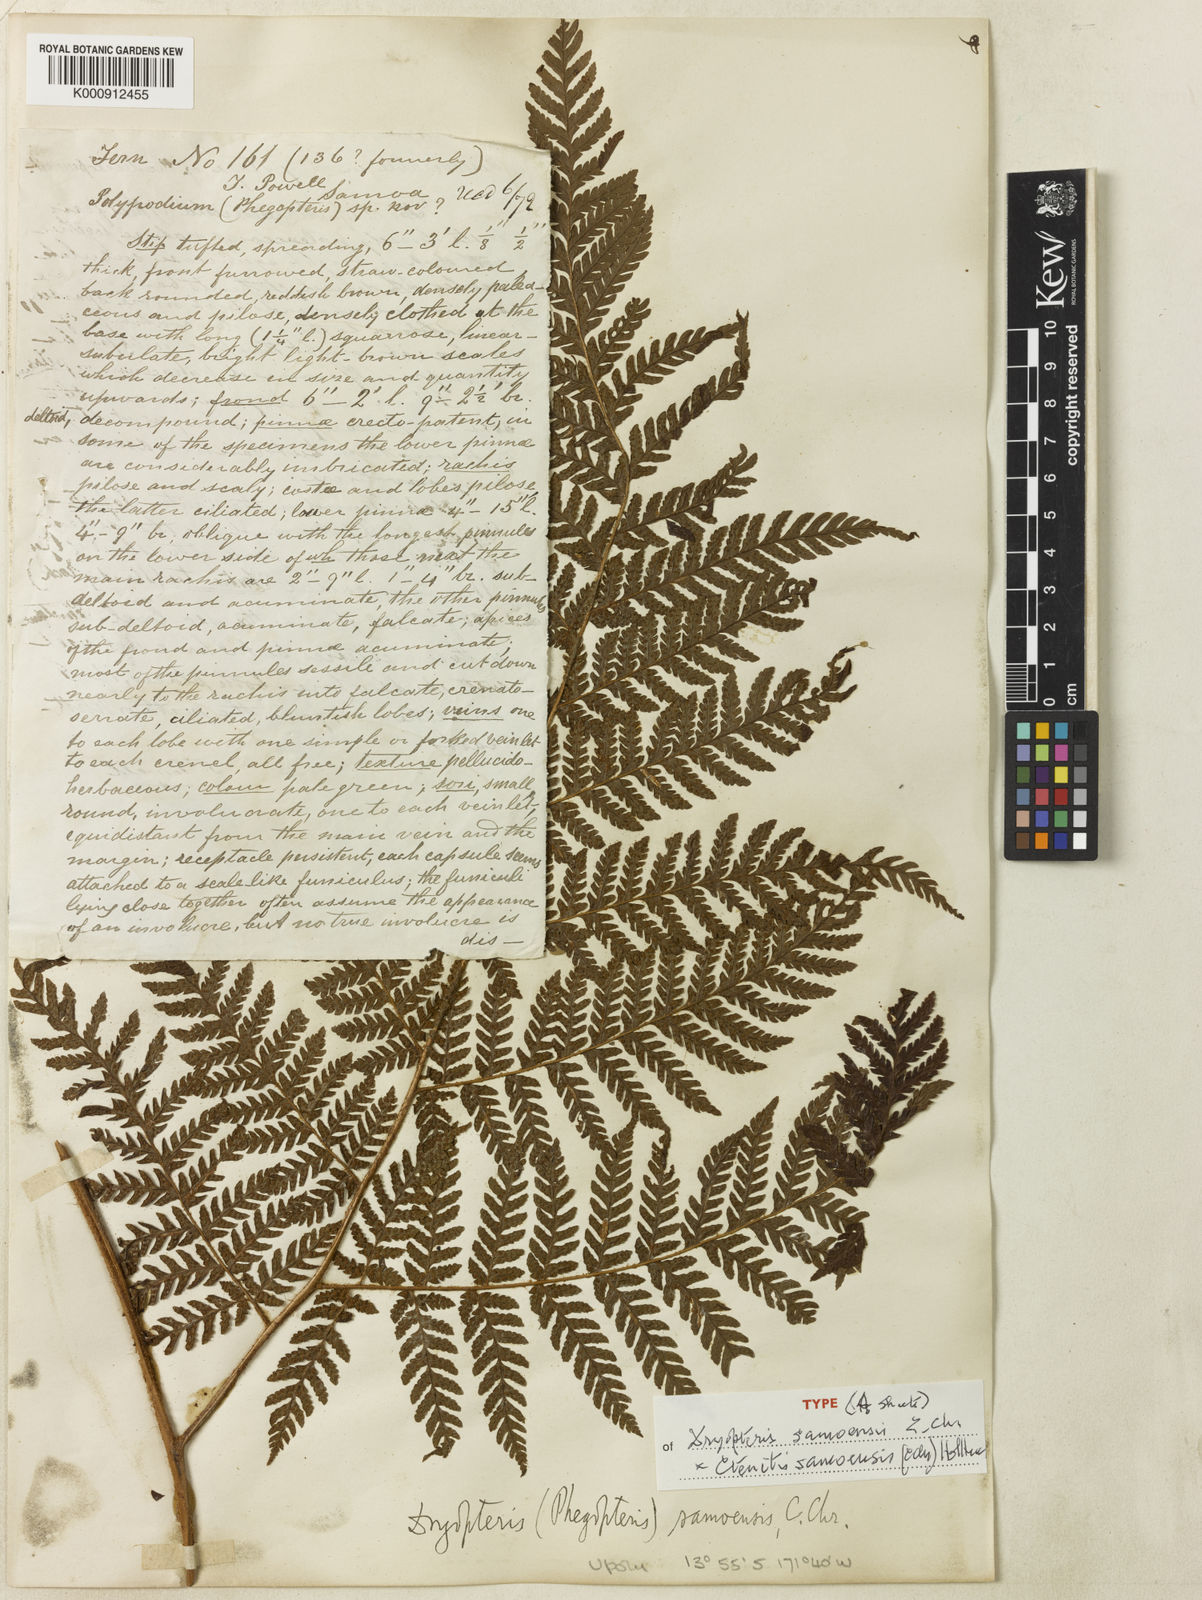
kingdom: Plantae
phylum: Tracheophyta
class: Polypodiopsida
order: Polypodiales
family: Dryopteridaceae
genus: Ctenitis
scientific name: Ctenitis samoensis
